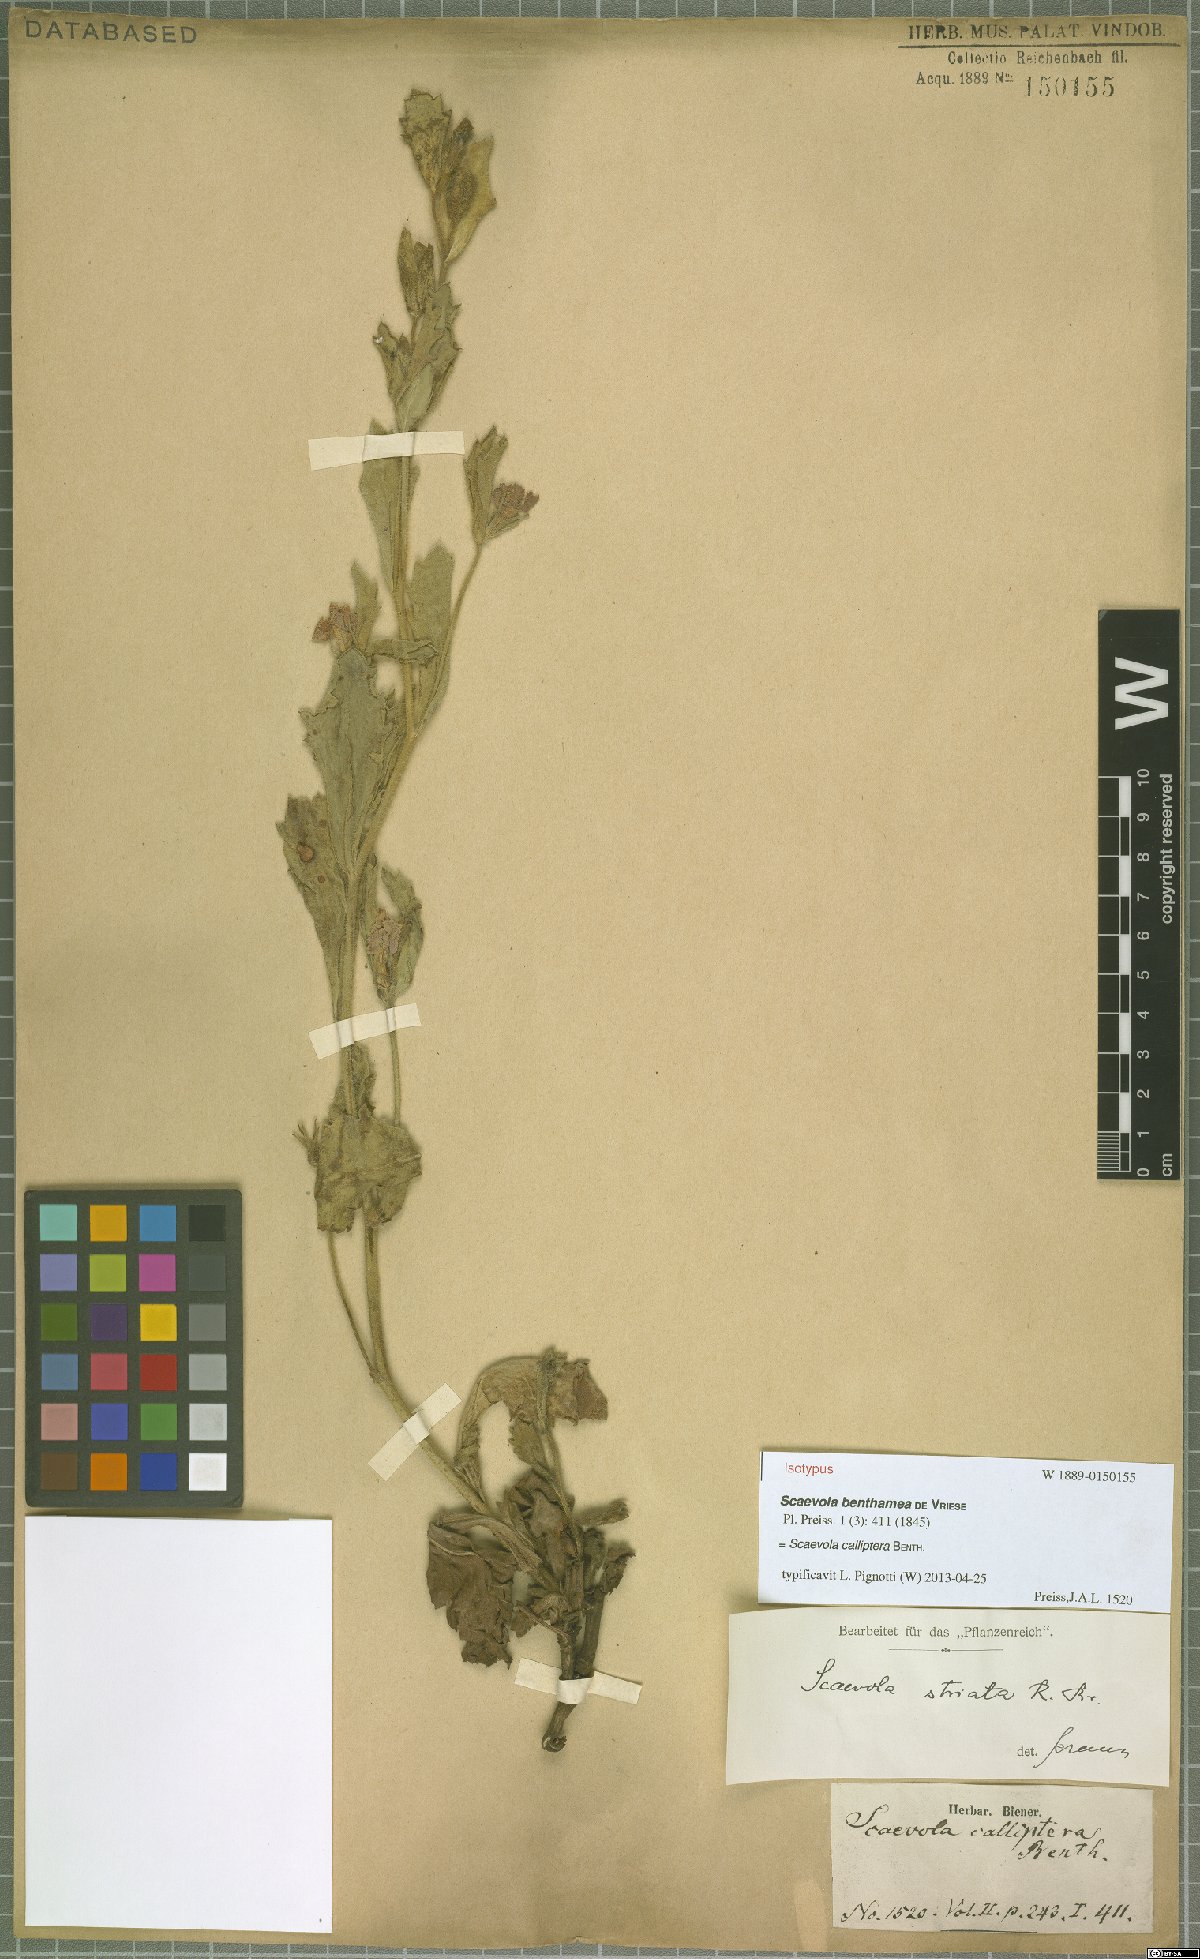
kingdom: Plantae
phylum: Tracheophyta
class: Magnoliopsida
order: Asterales
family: Goodeniaceae
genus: Scaevola
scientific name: Scaevola calliptera
